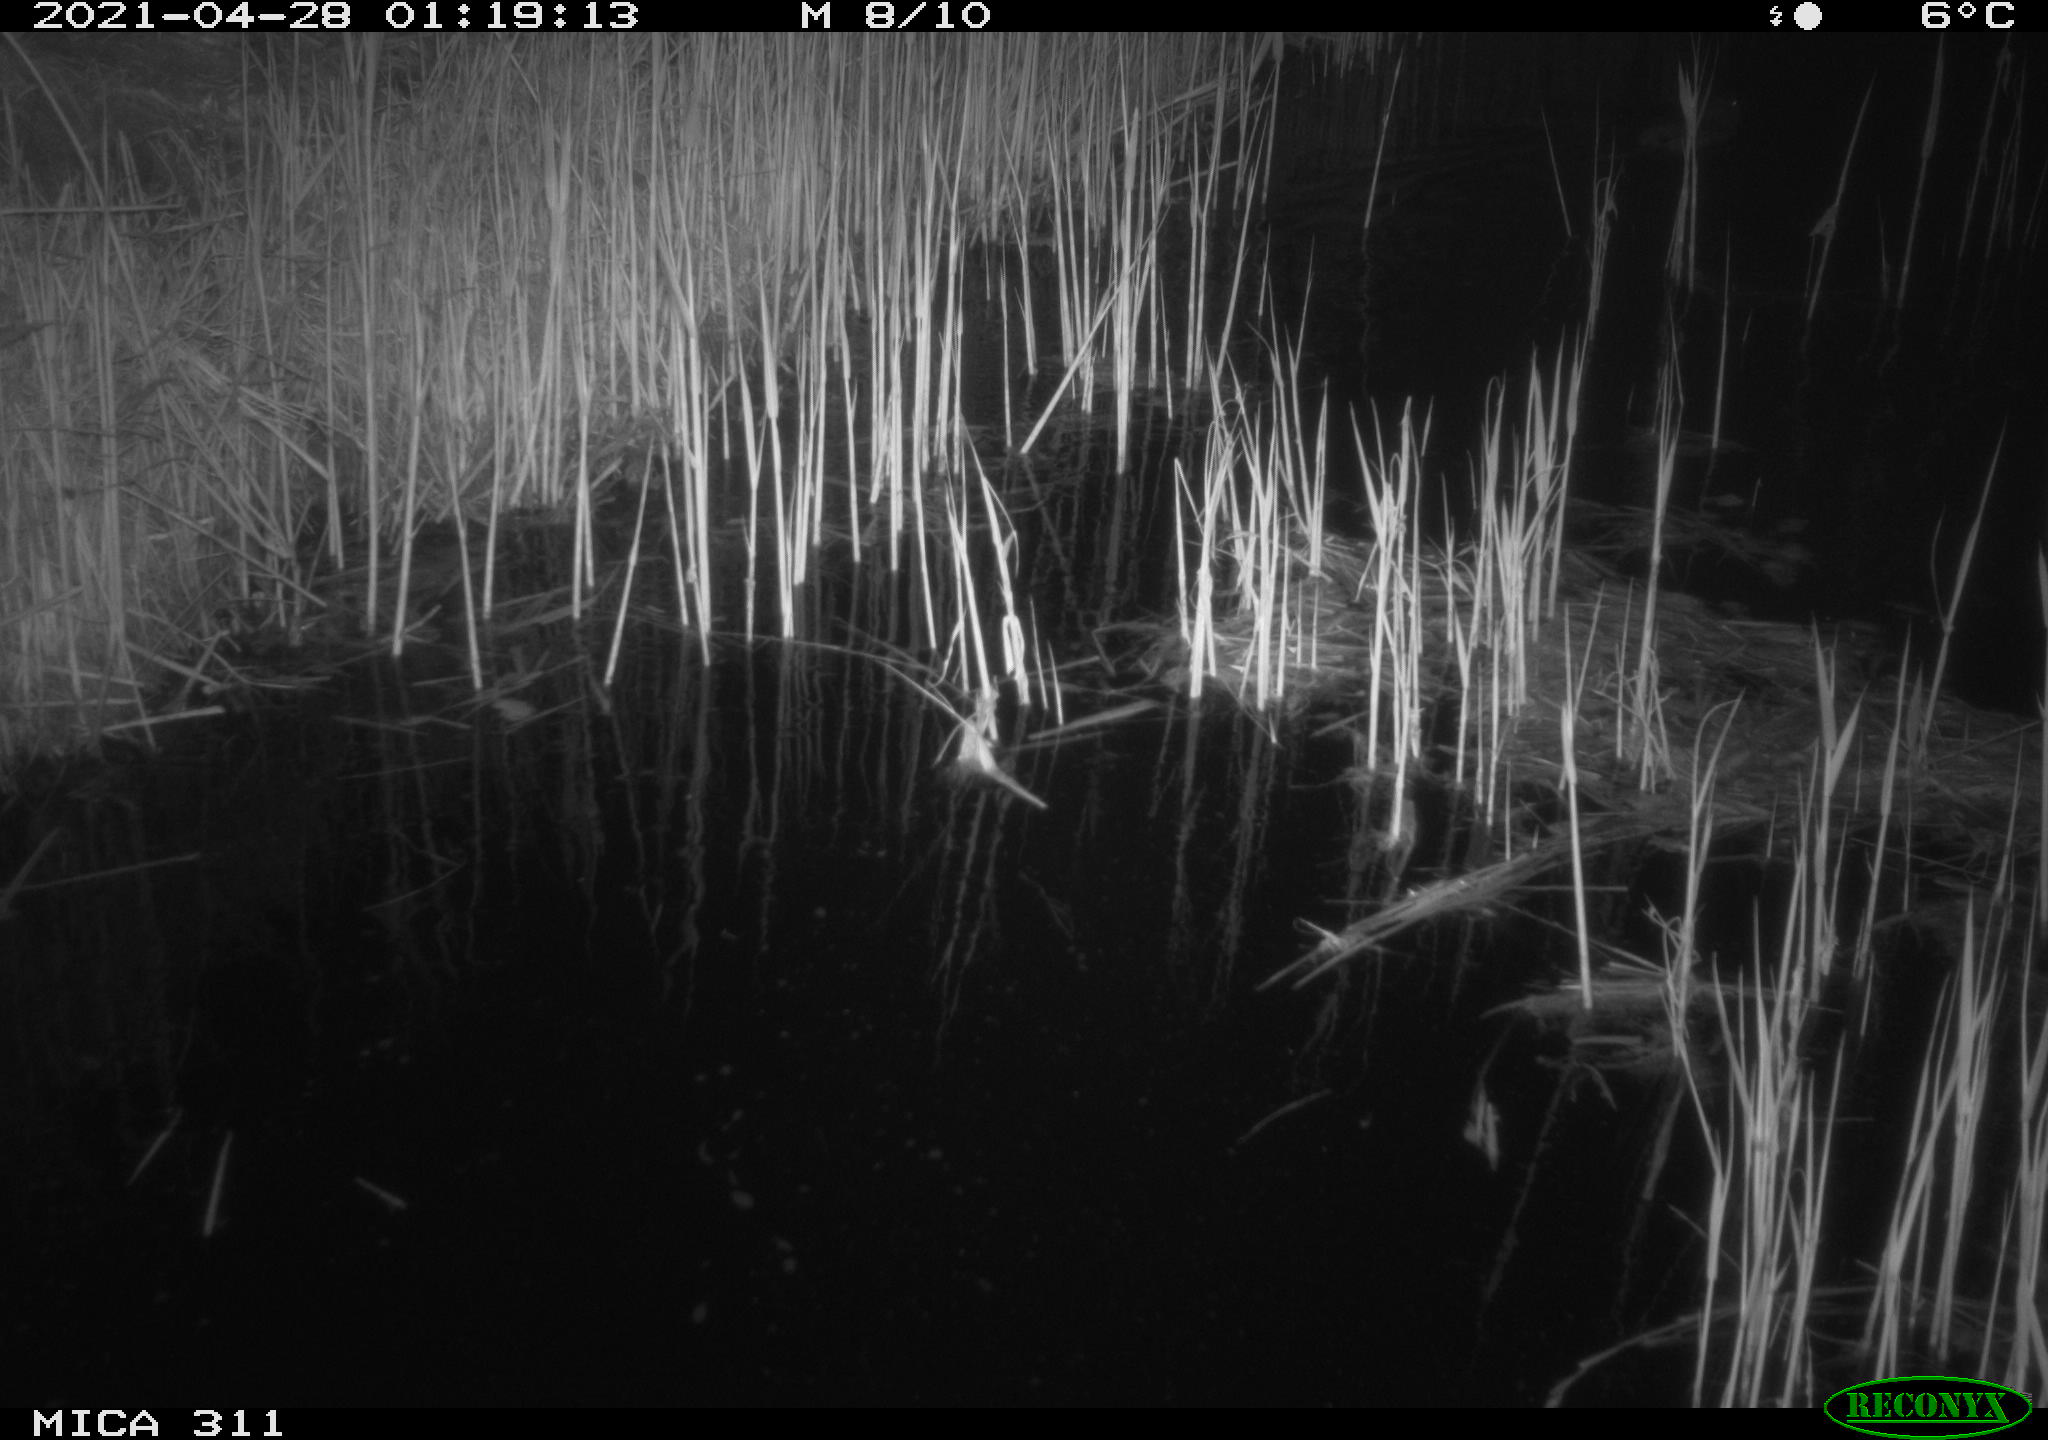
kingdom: Animalia
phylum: Chordata
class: Mammalia
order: Rodentia
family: Cricetidae
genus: Ondatra
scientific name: Ondatra zibethicus
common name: Muskrat
